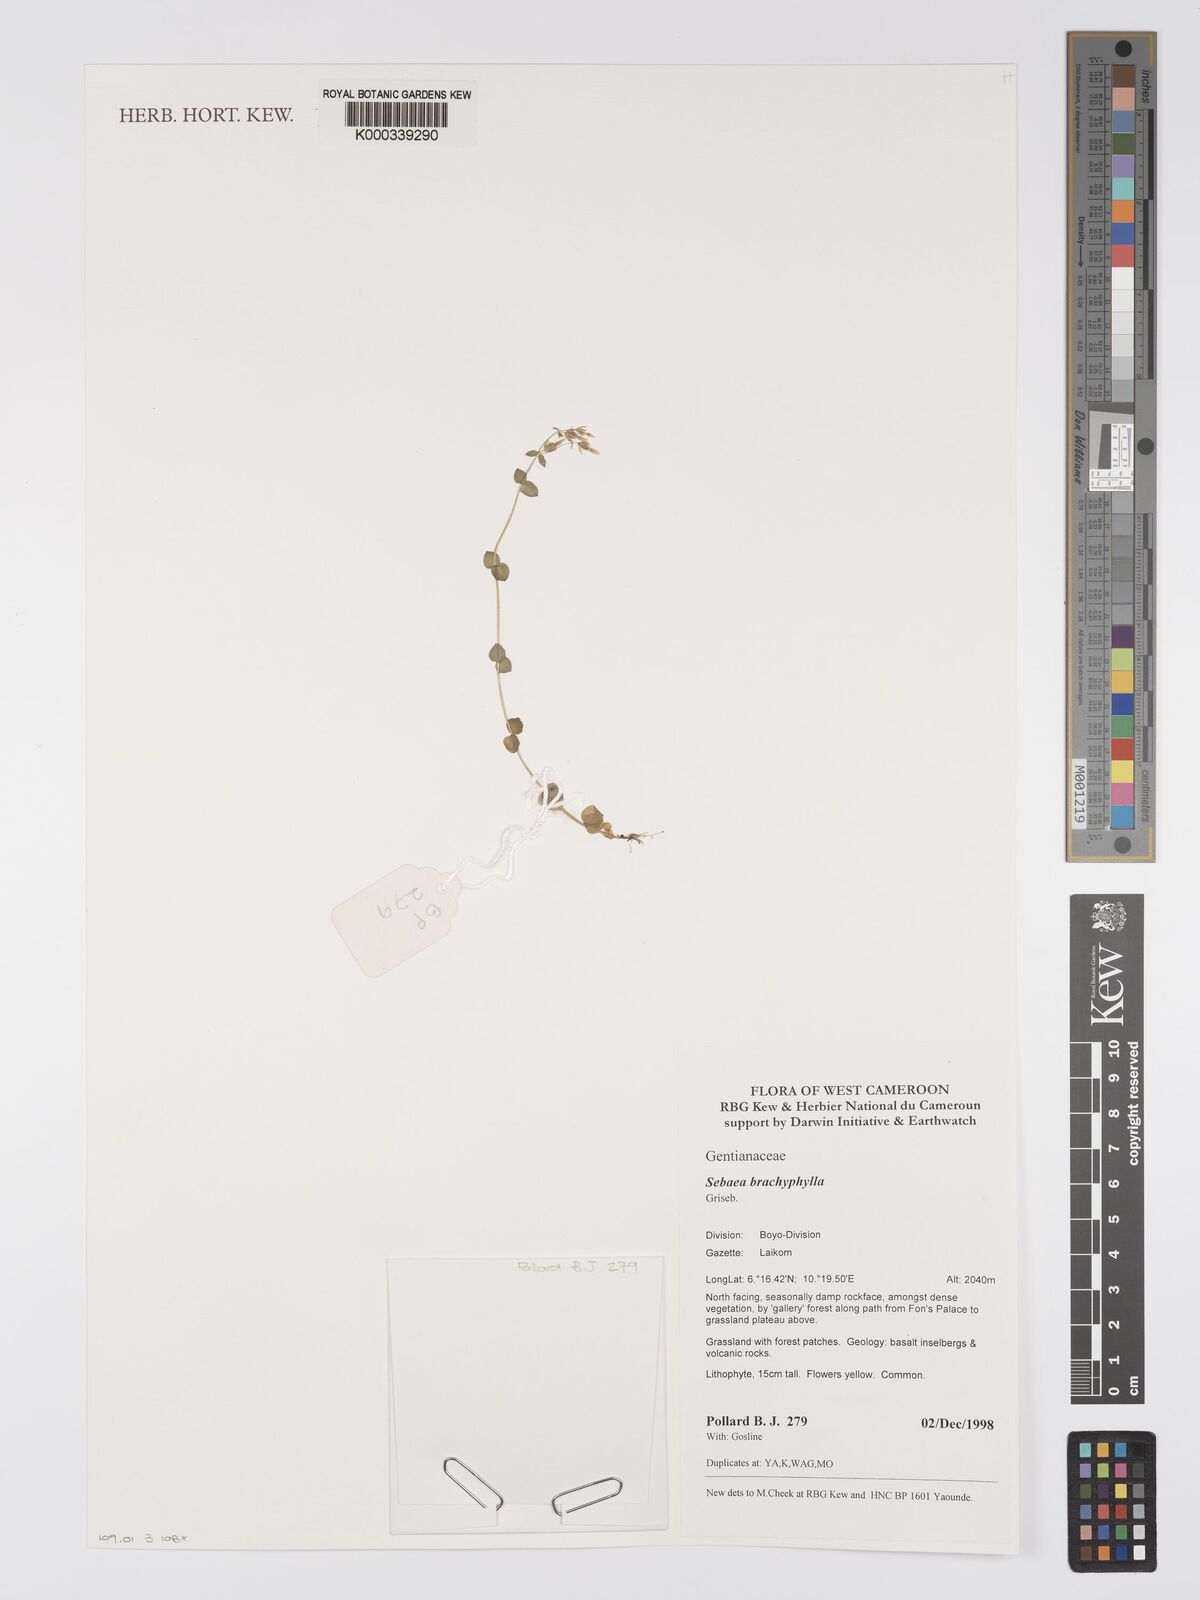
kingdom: Plantae
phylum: Tracheophyta
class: Magnoliopsida
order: Gentianales
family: Gentianaceae
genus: Sebaea
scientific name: Sebaea brachyphylla
